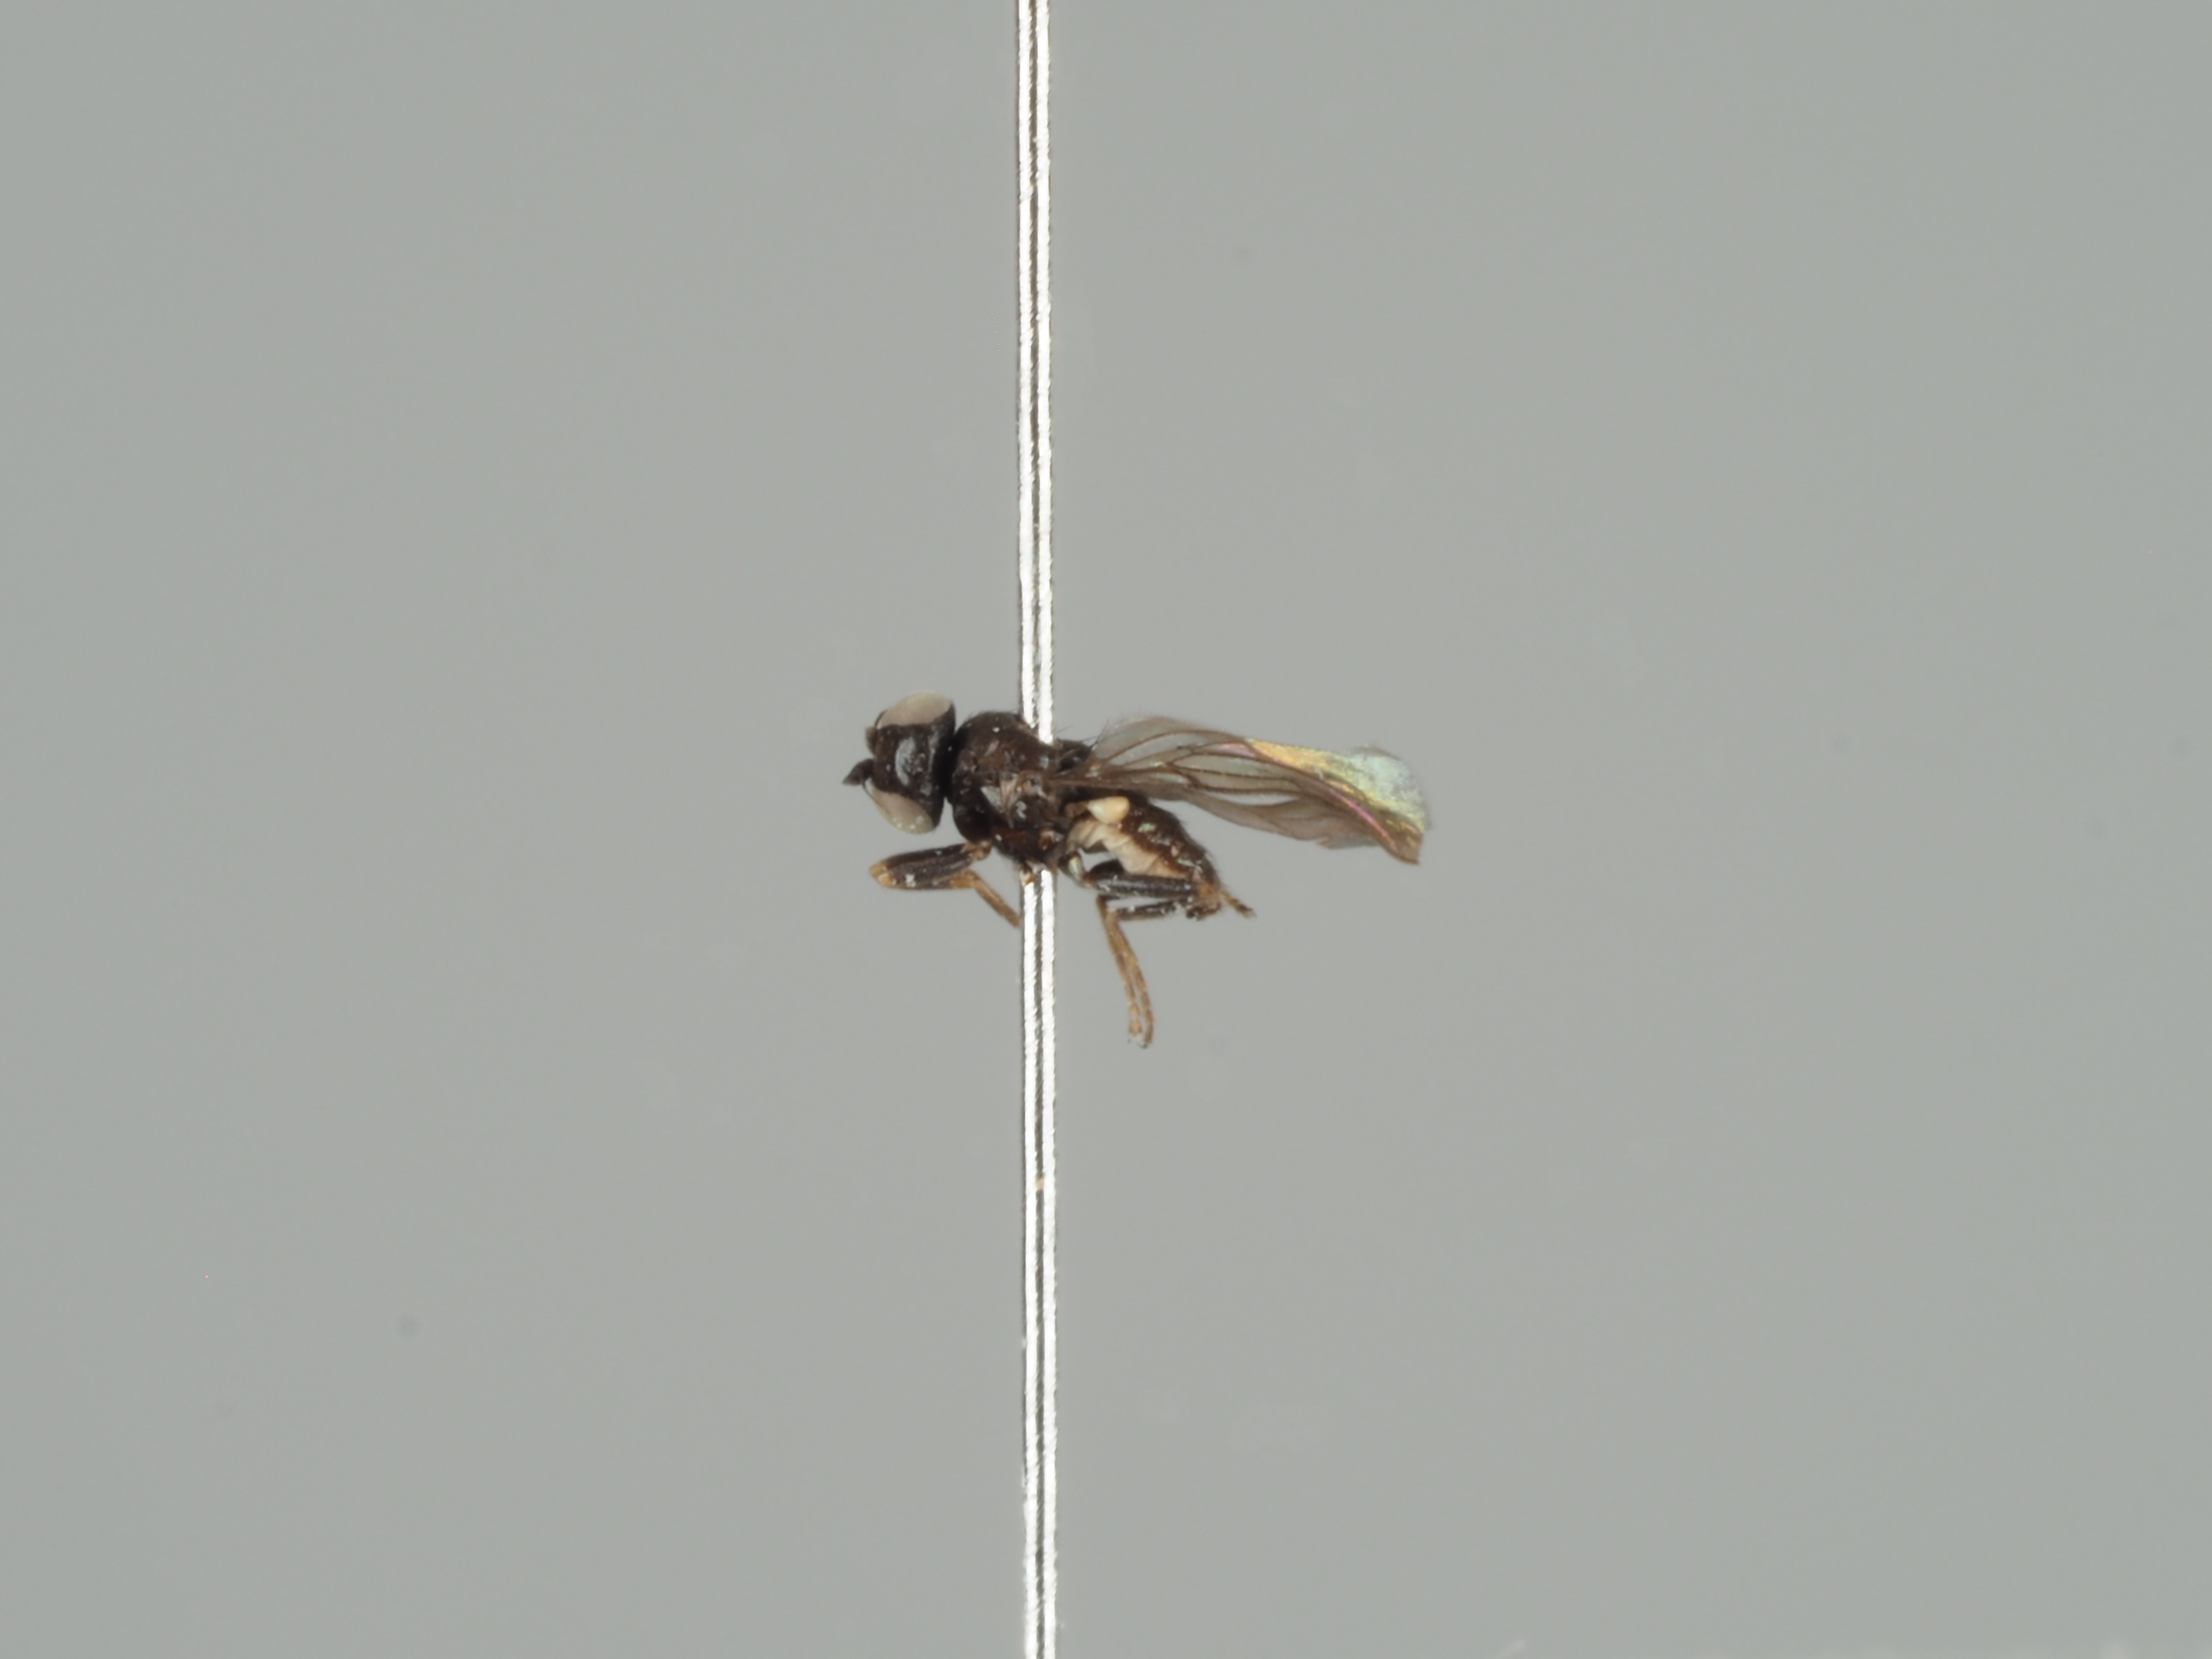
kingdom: Animalia
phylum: Arthropoda
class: Insecta
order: Diptera
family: Chloropidae
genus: Oscinella
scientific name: Oscinella cariciphila
